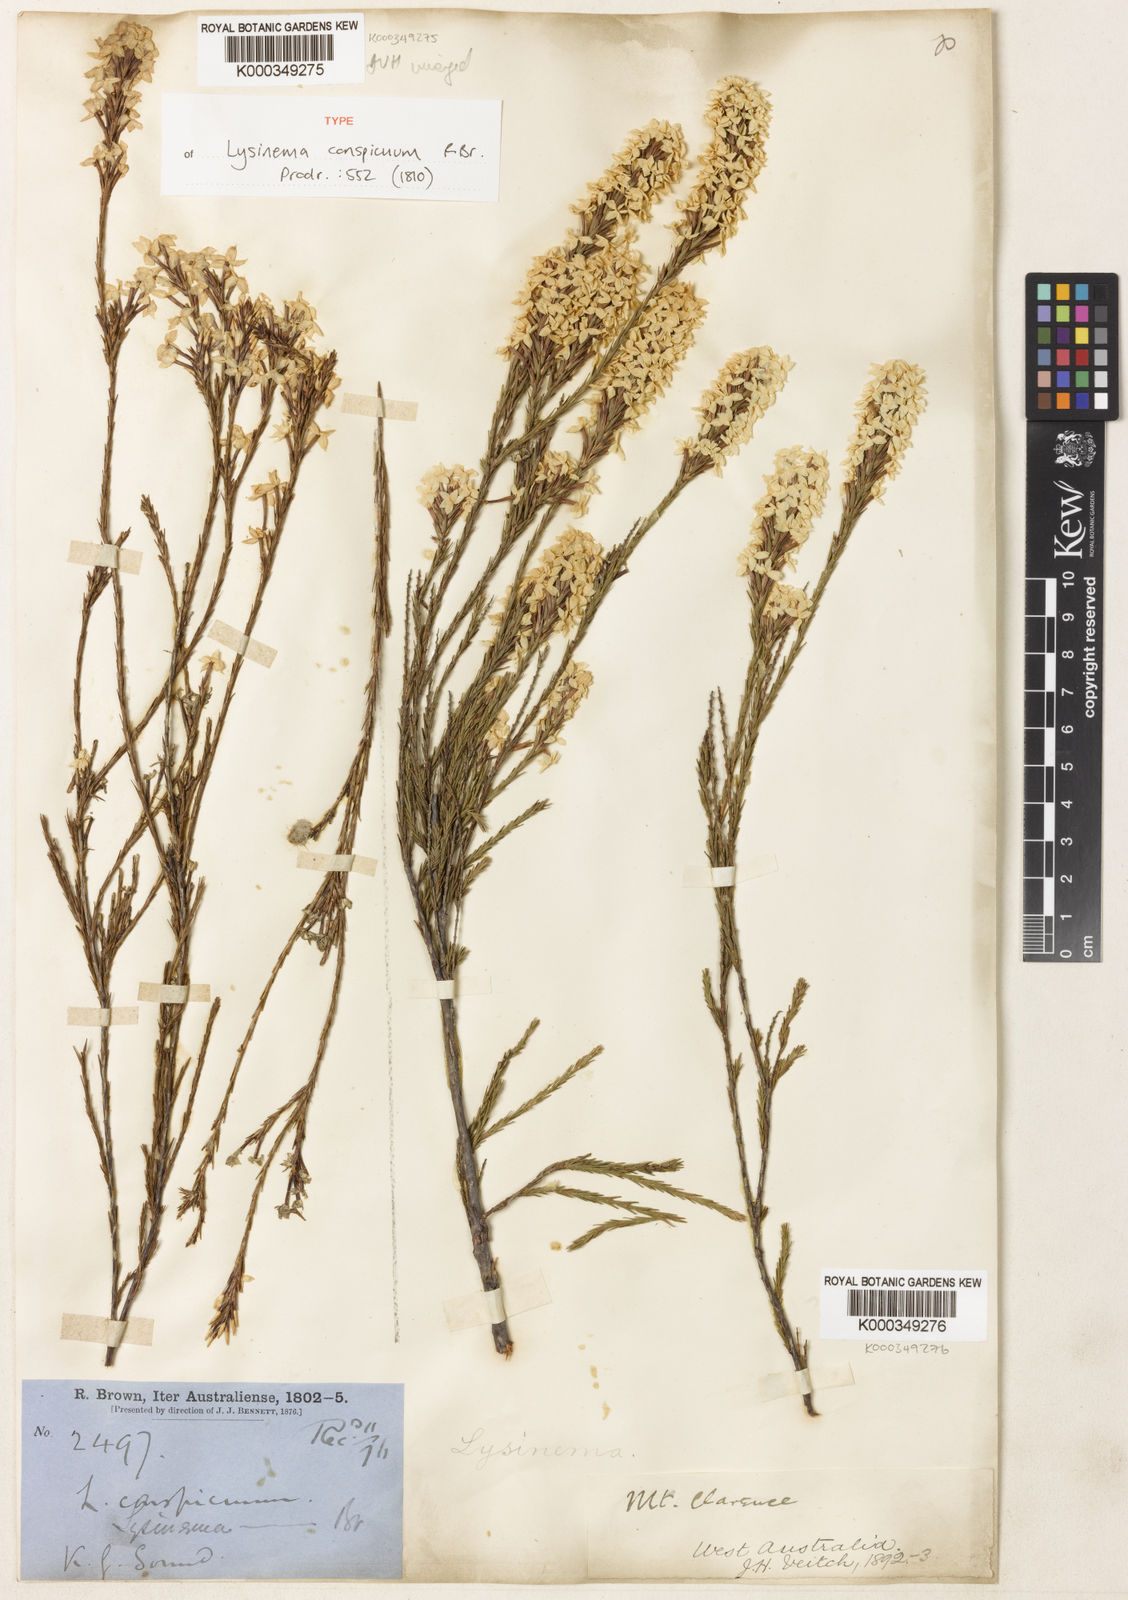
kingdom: Plantae
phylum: Tracheophyta
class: Magnoliopsida
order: Ericales
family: Ericaceae
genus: Lysinema
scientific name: Lysinema conspicuum
